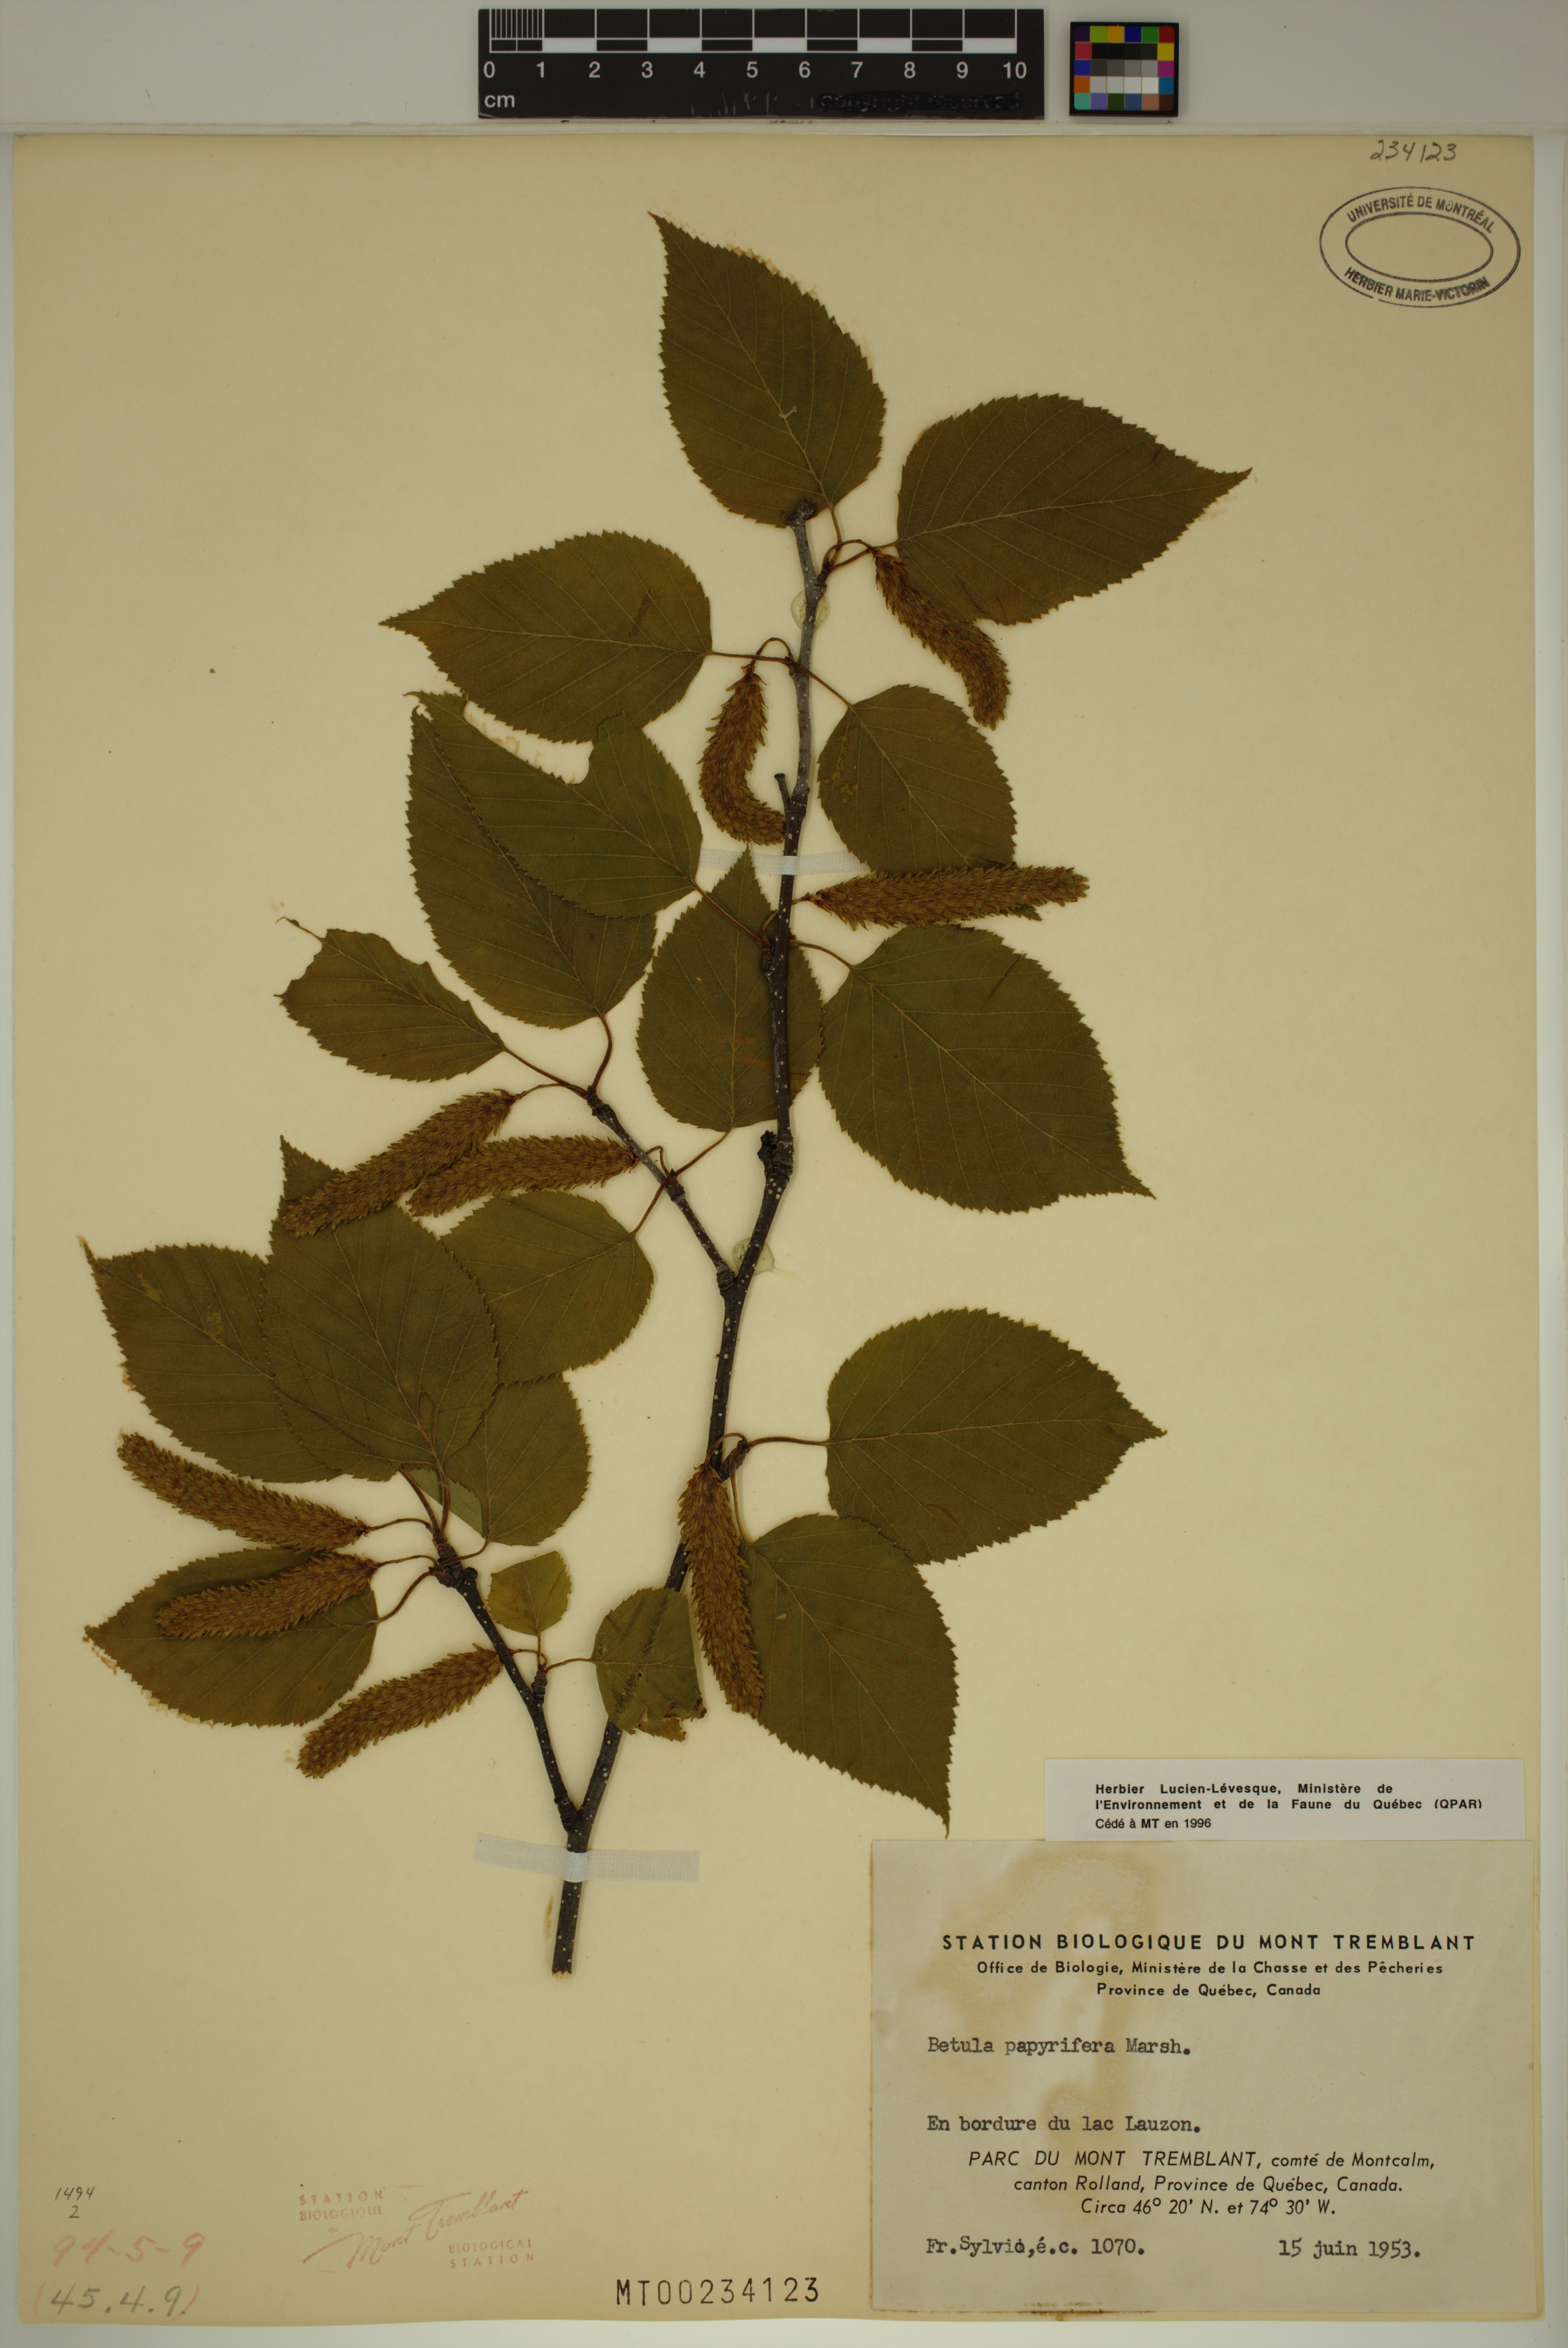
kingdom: Plantae
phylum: Tracheophyta
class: Magnoliopsida
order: Fagales
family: Betulaceae
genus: Betula
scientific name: Betula papyrifera
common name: Paper birch
